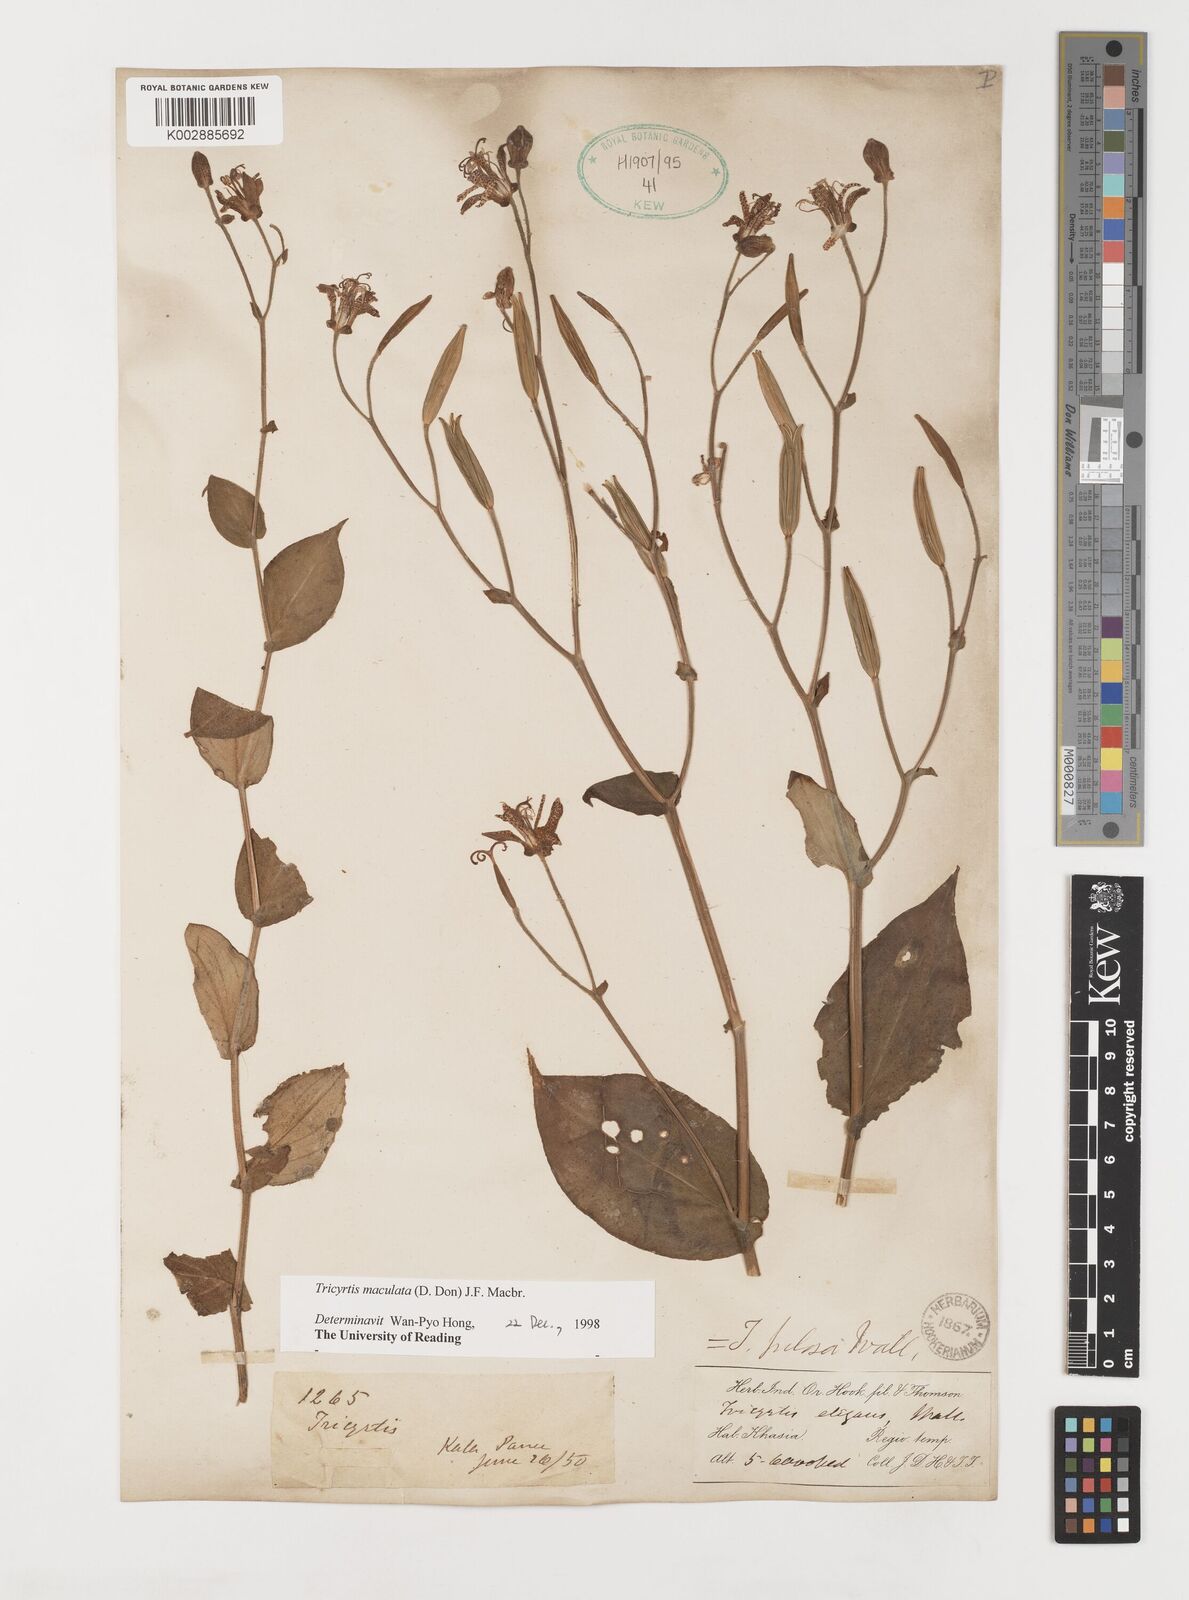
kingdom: Plantae
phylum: Tracheophyta
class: Liliopsida
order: Liliales
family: Liliaceae
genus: Tricyrtis
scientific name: Tricyrtis maculata
